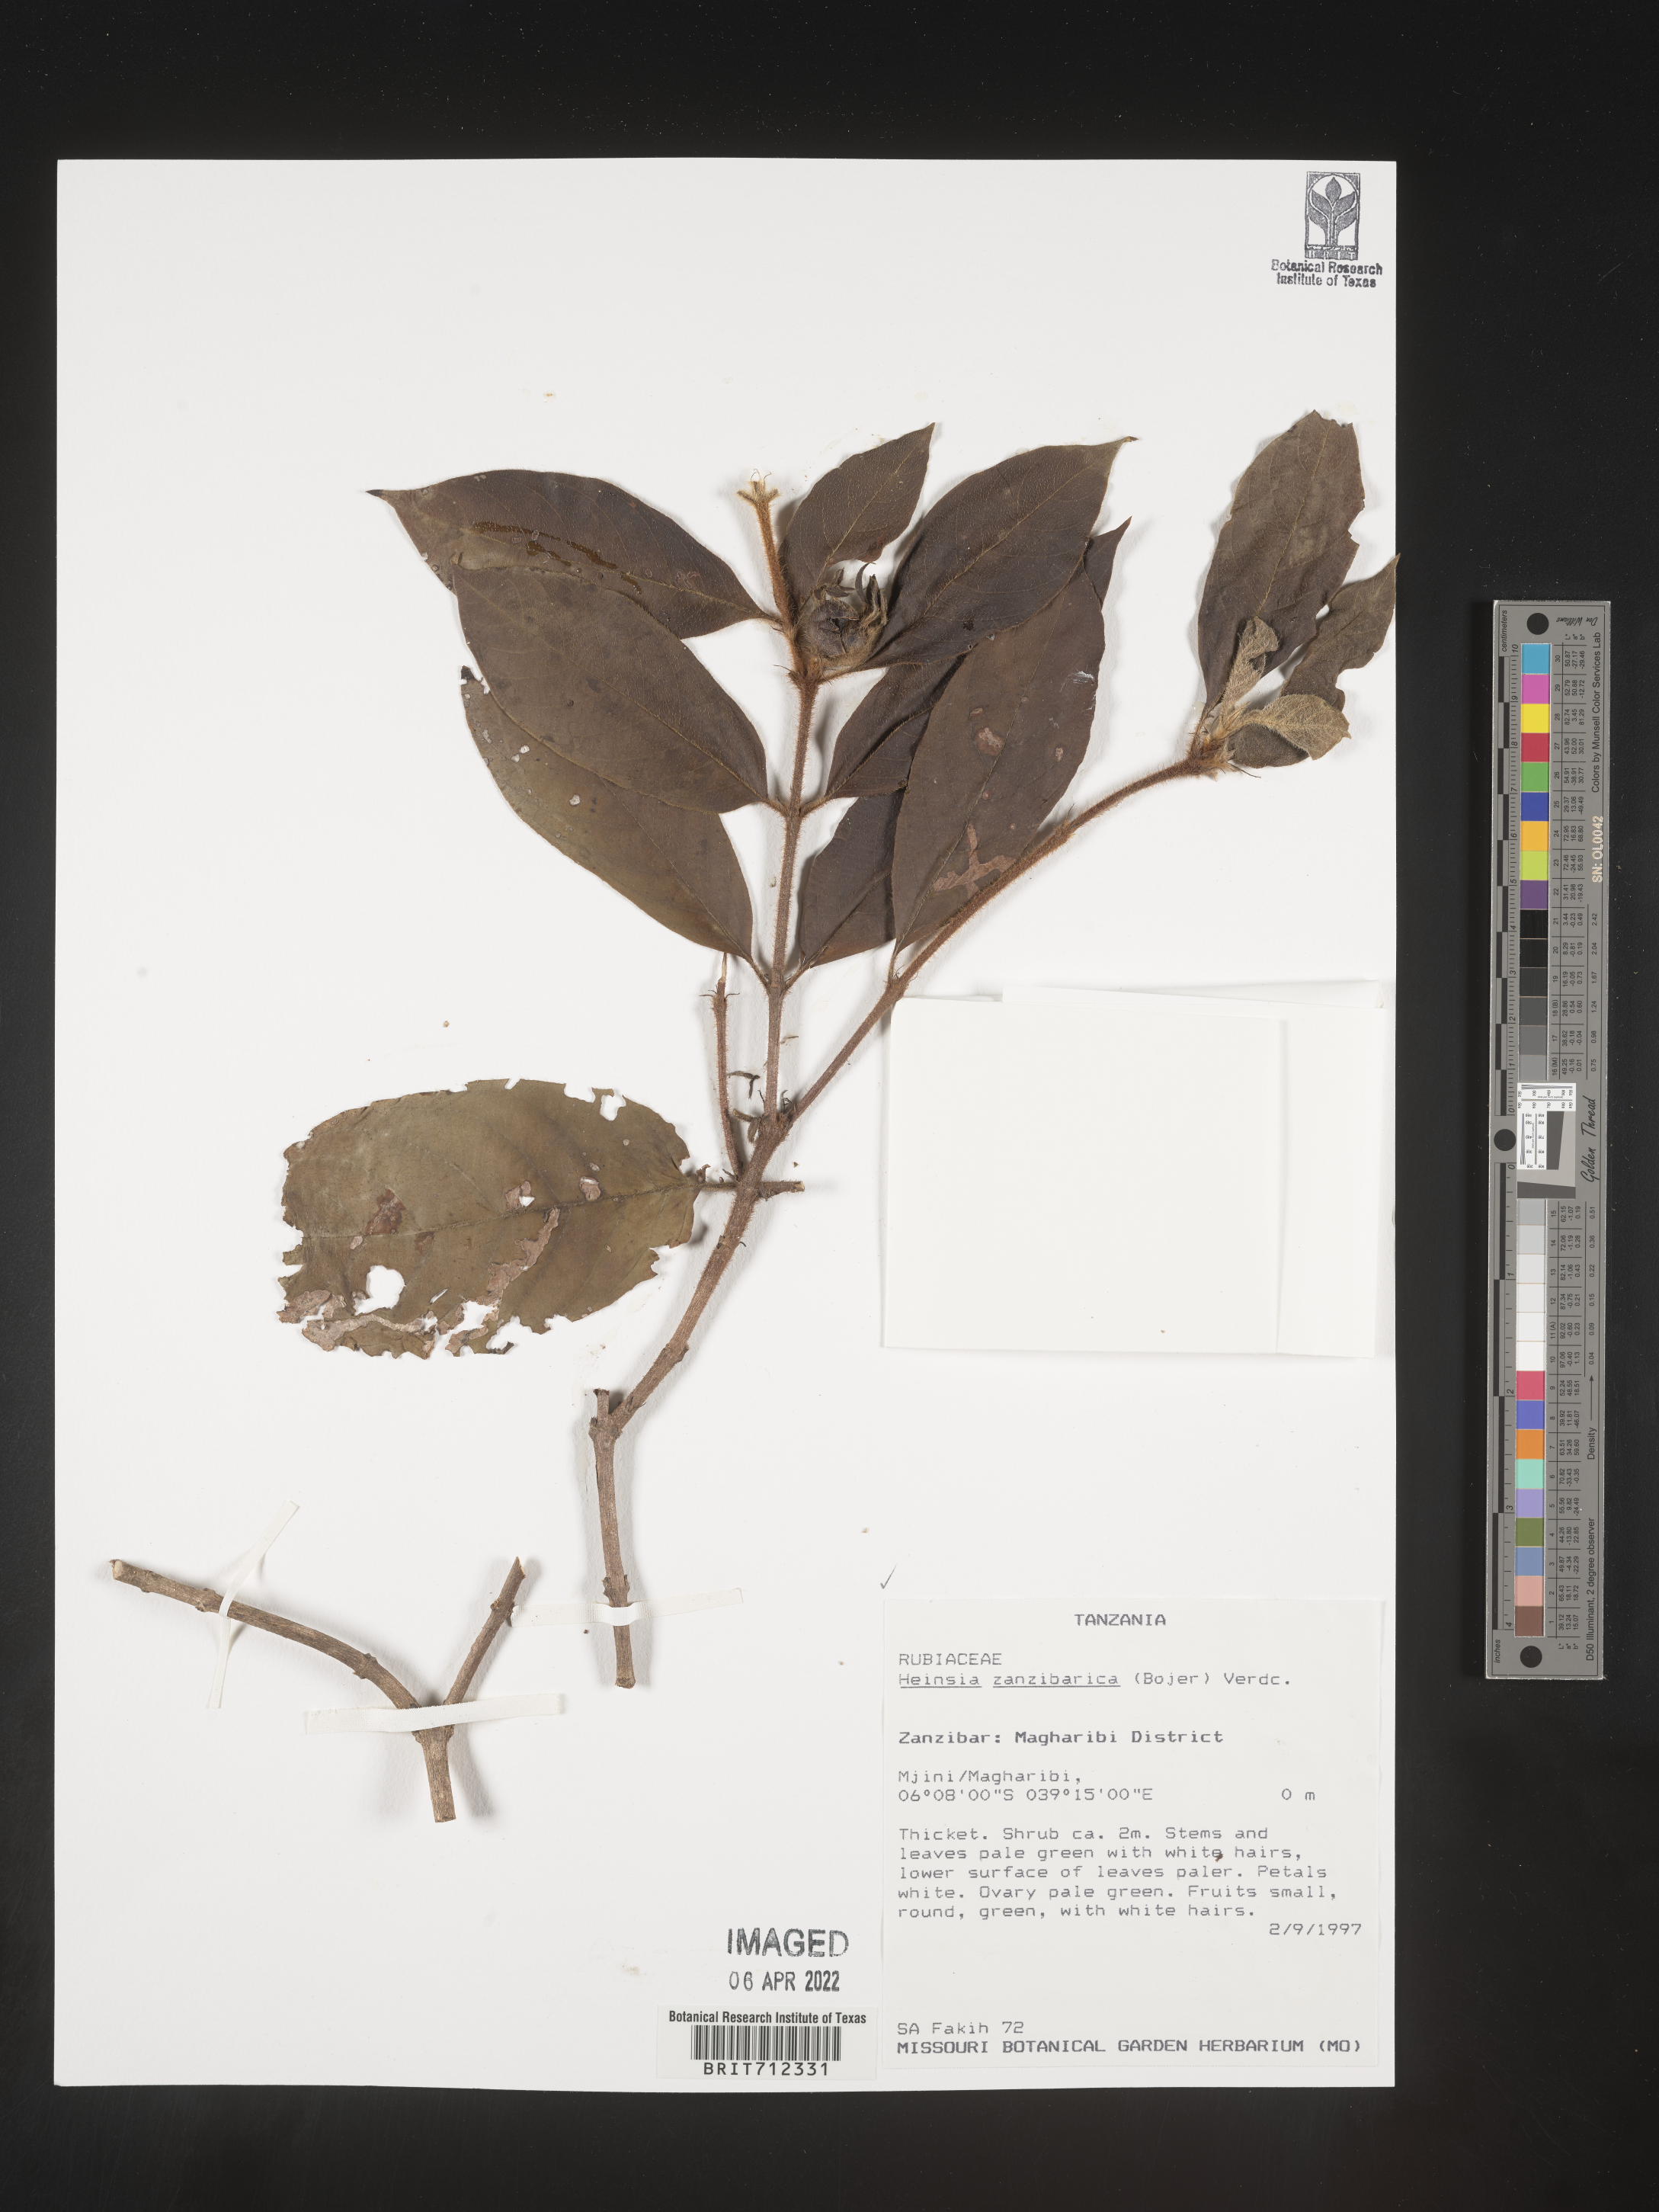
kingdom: Plantae
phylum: Tracheophyta
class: Magnoliopsida
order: Gentianales
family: Rubiaceae
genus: Heinsia
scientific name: Heinsia
